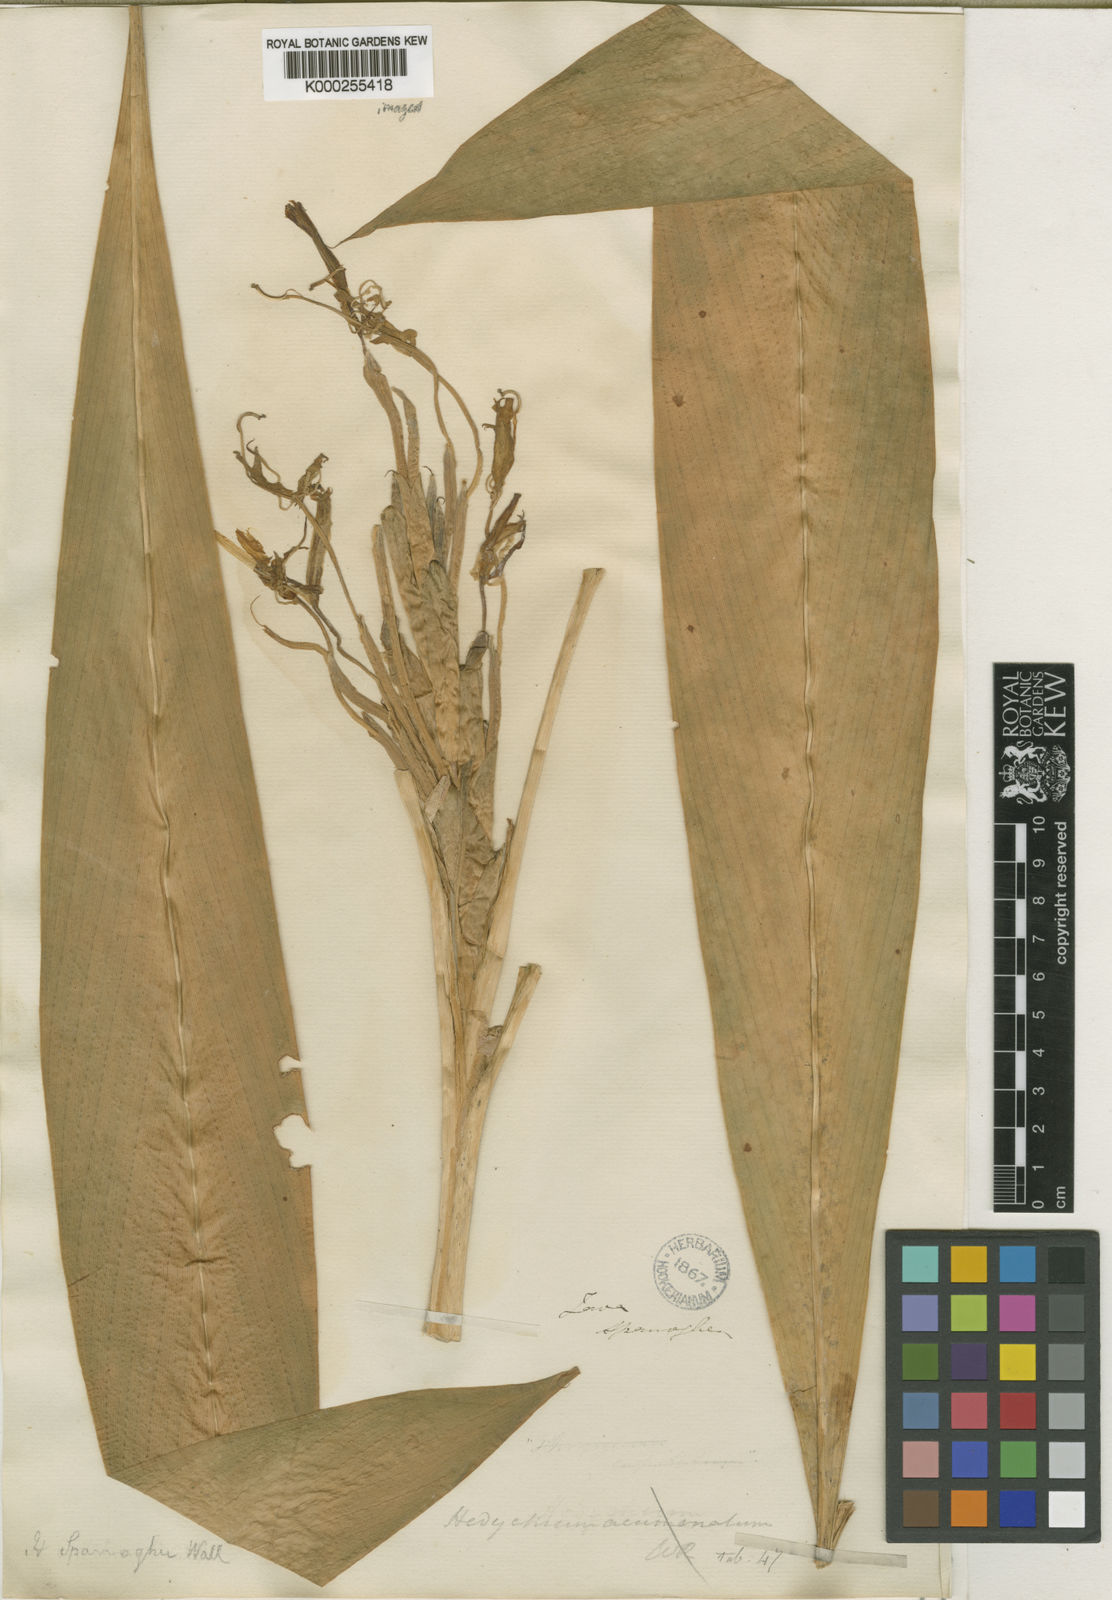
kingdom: Plantae
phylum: Tracheophyta
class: Liliopsida
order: Zingiberales
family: Zingiberaceae
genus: Hedychium
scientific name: Hedychium roxburghii
